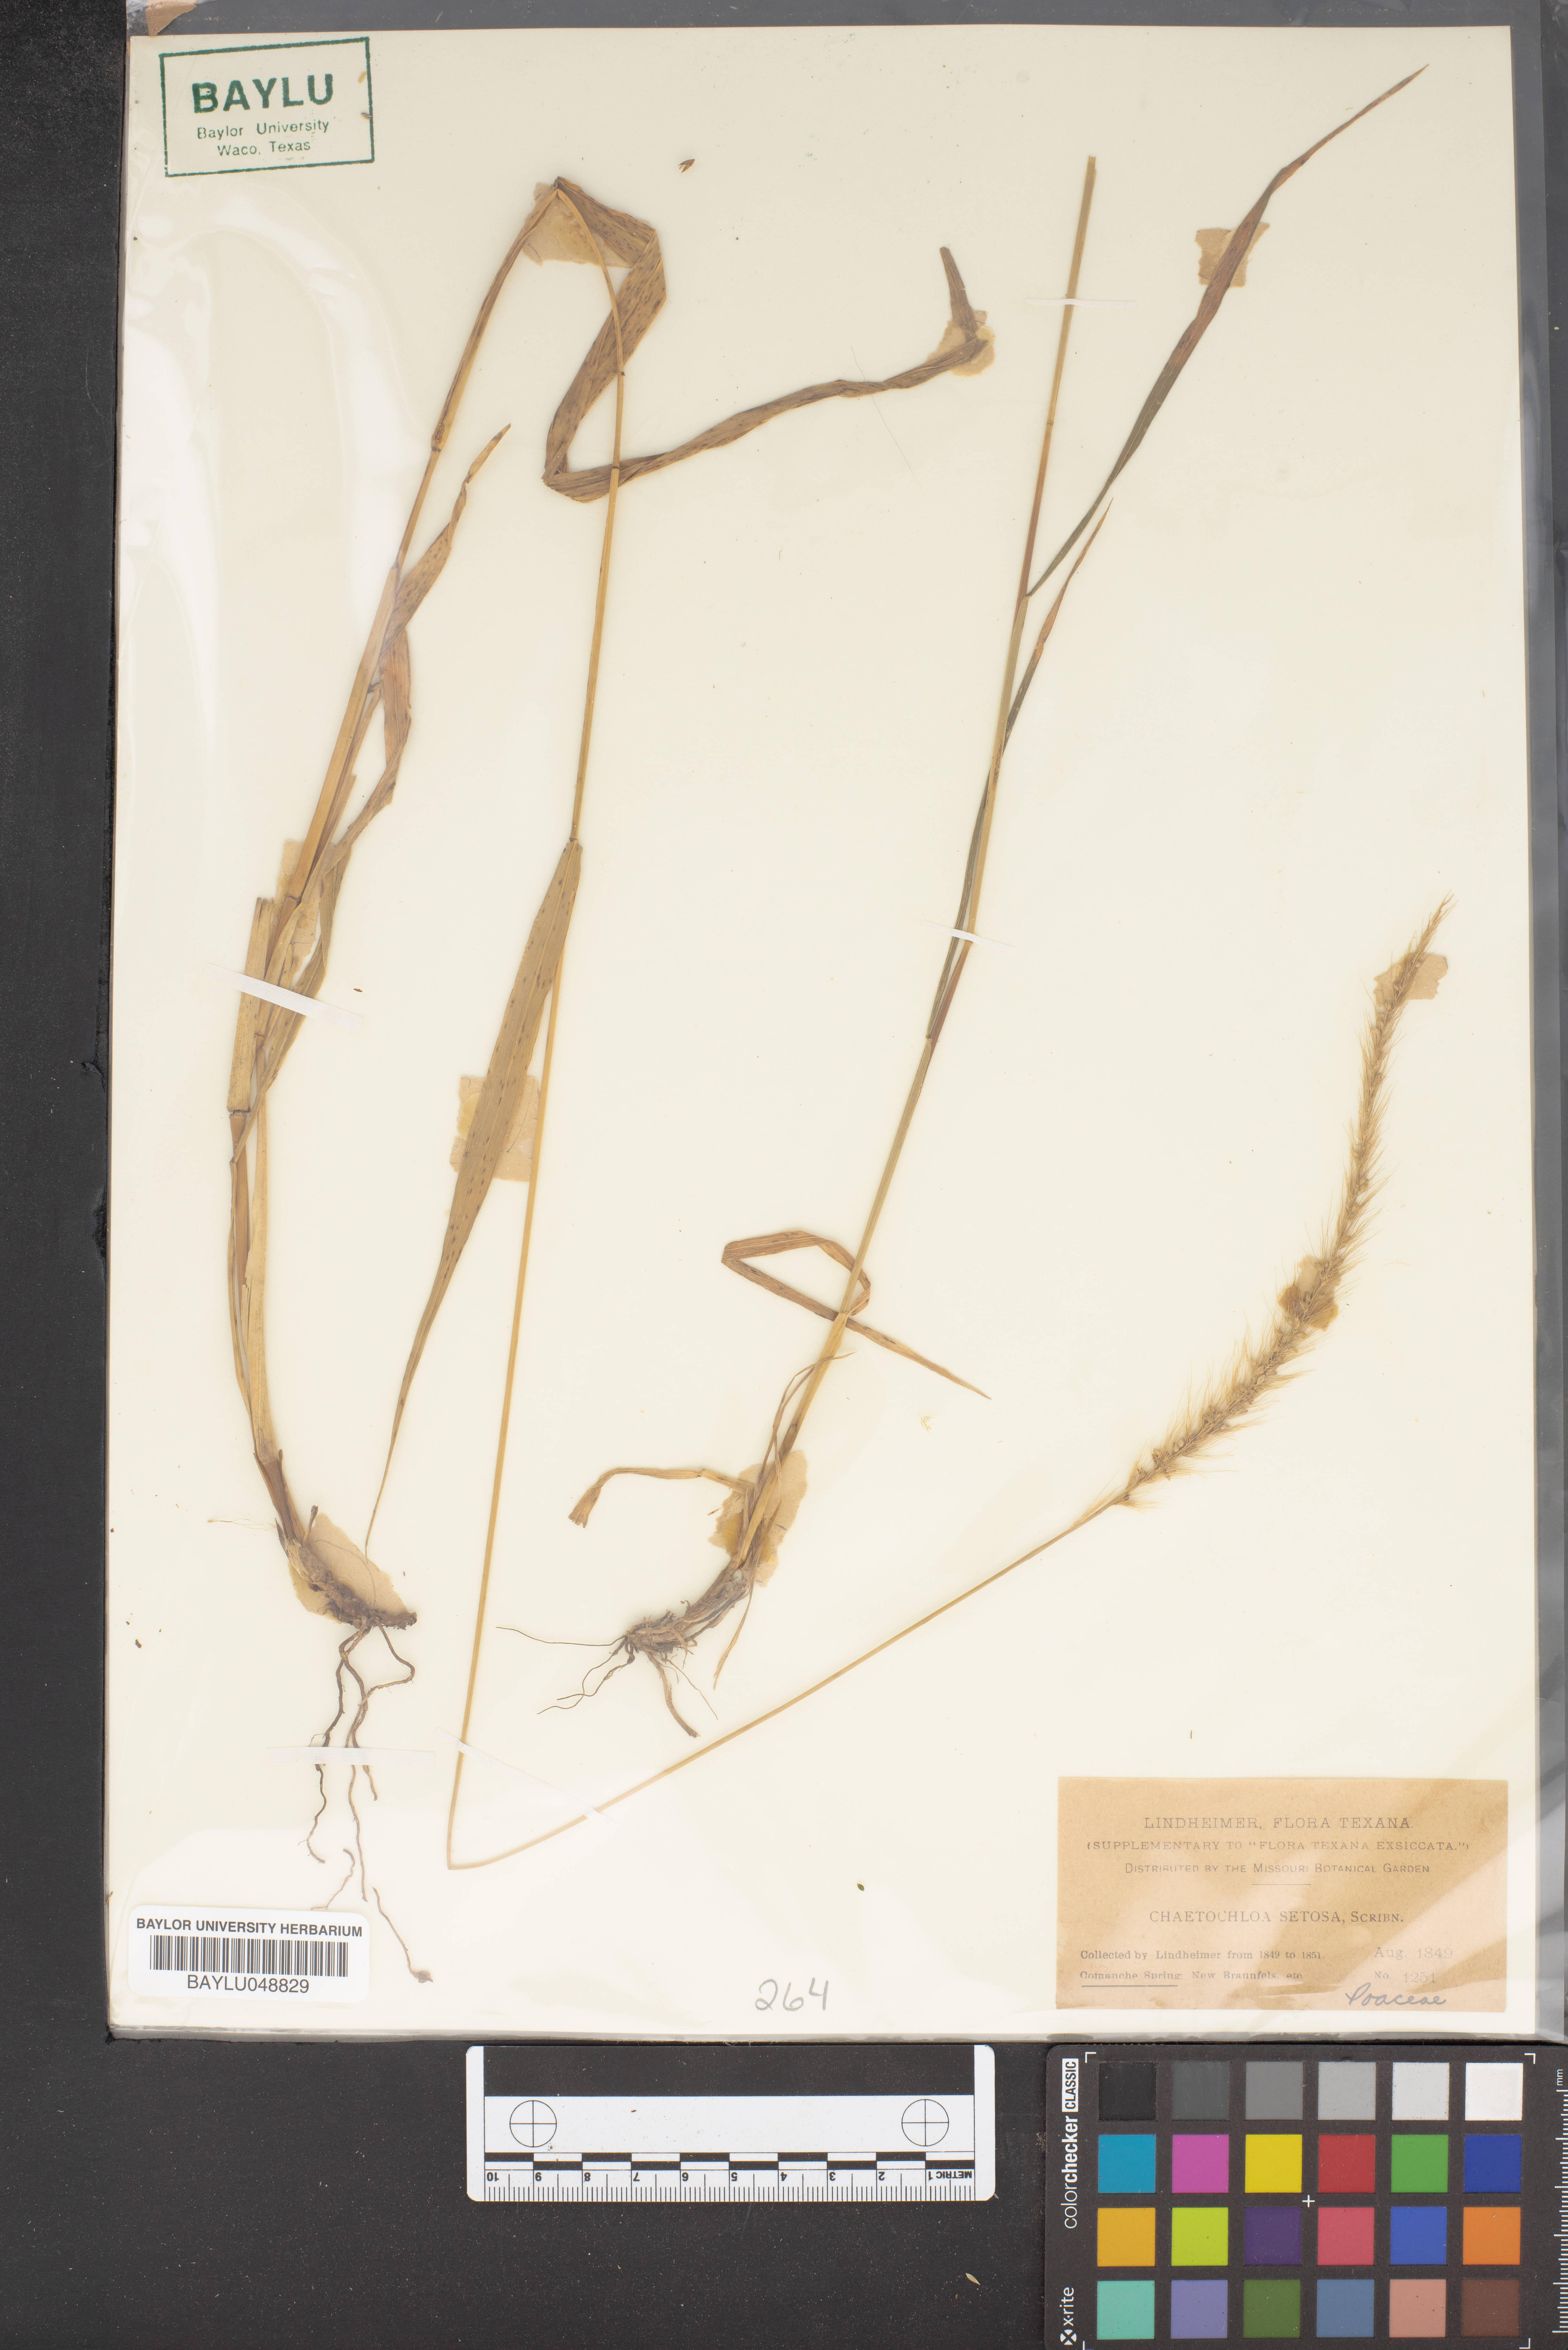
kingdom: Plantae
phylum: Tracheophyta
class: Liliopsida
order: Poales
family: Poaceae
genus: Setaria
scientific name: Setaria setosa
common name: West indies bristle grass
